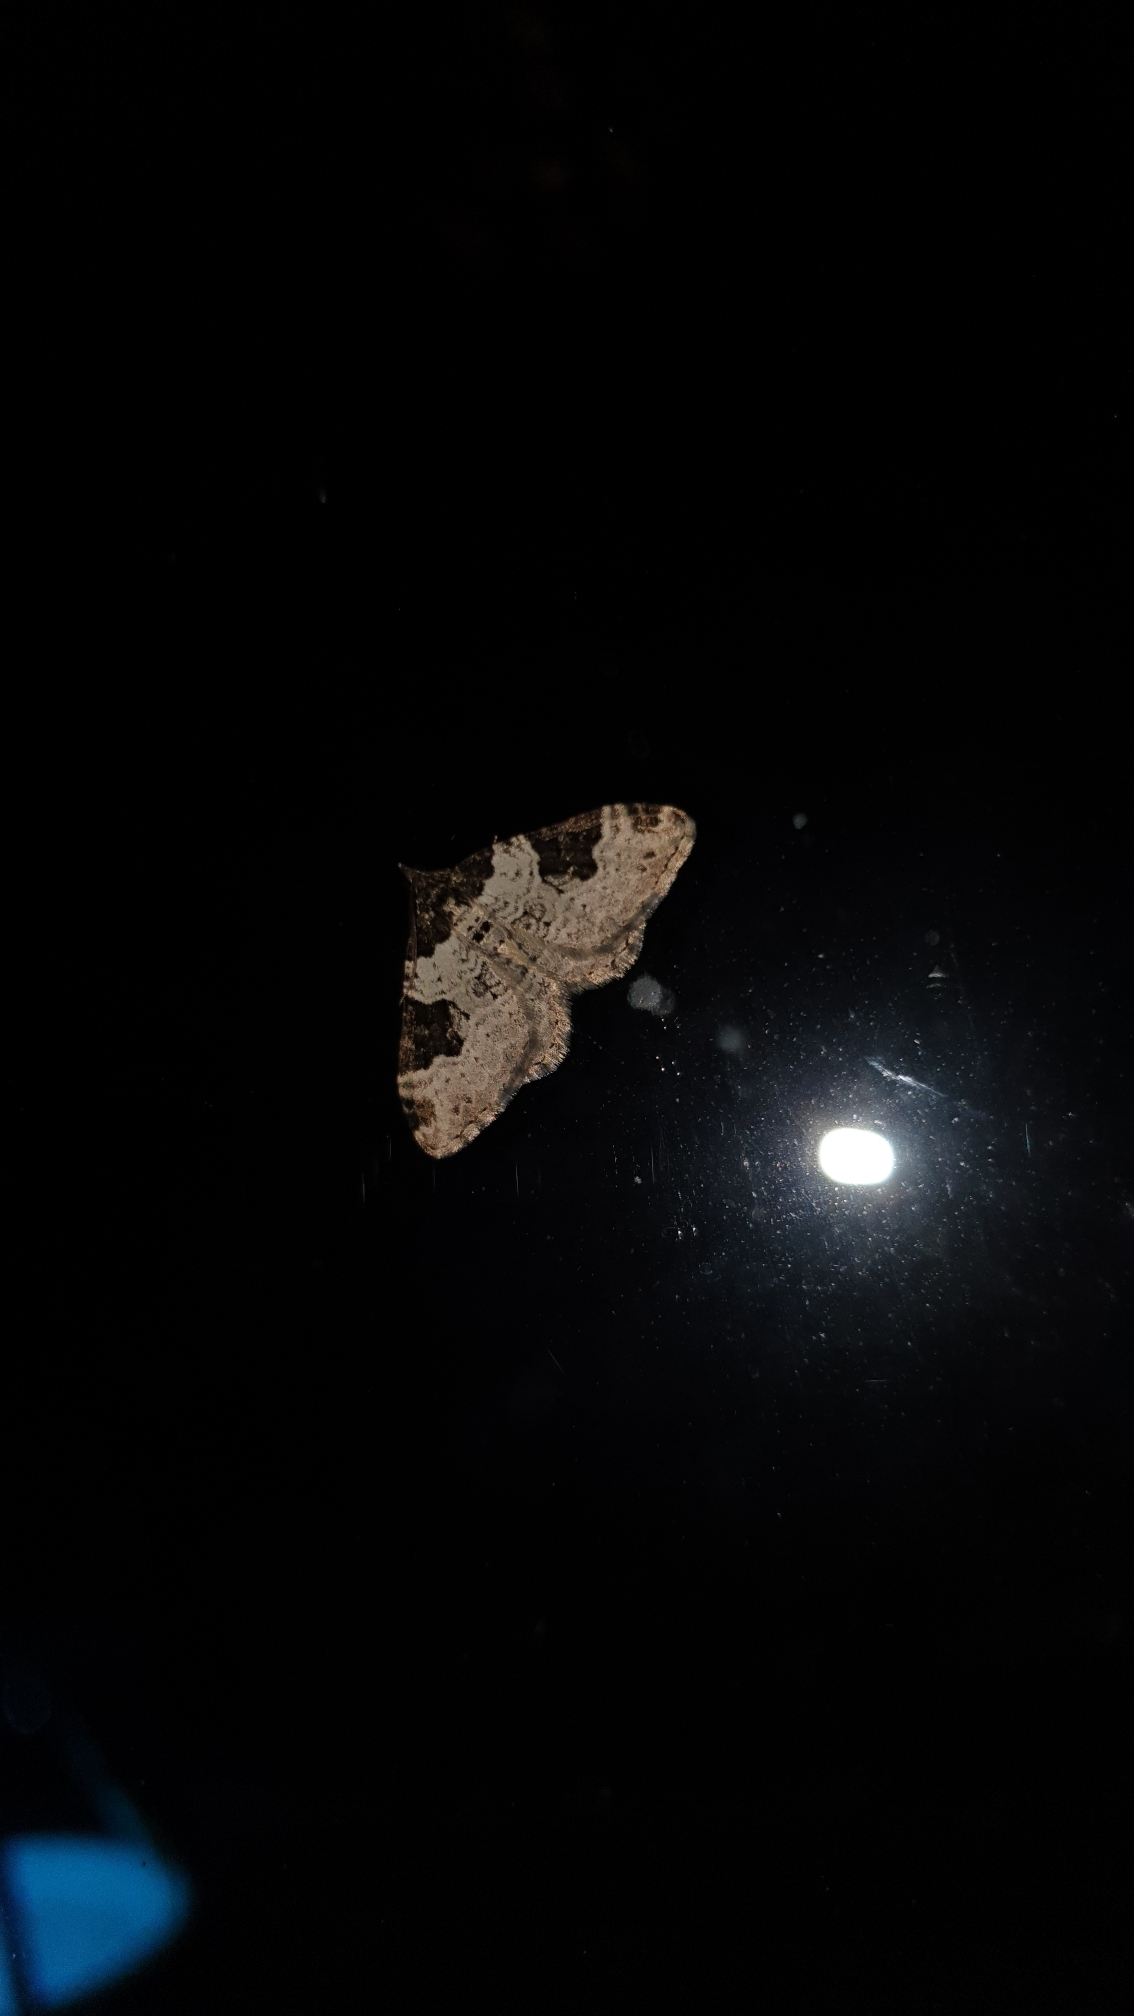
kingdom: Animalia
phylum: Arthropoda
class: Insecta
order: Lepidoptera
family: Geometridae
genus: Xanthorhoe
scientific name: Xanthorhoe fluctuata
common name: Sortbæltet bladmåler
